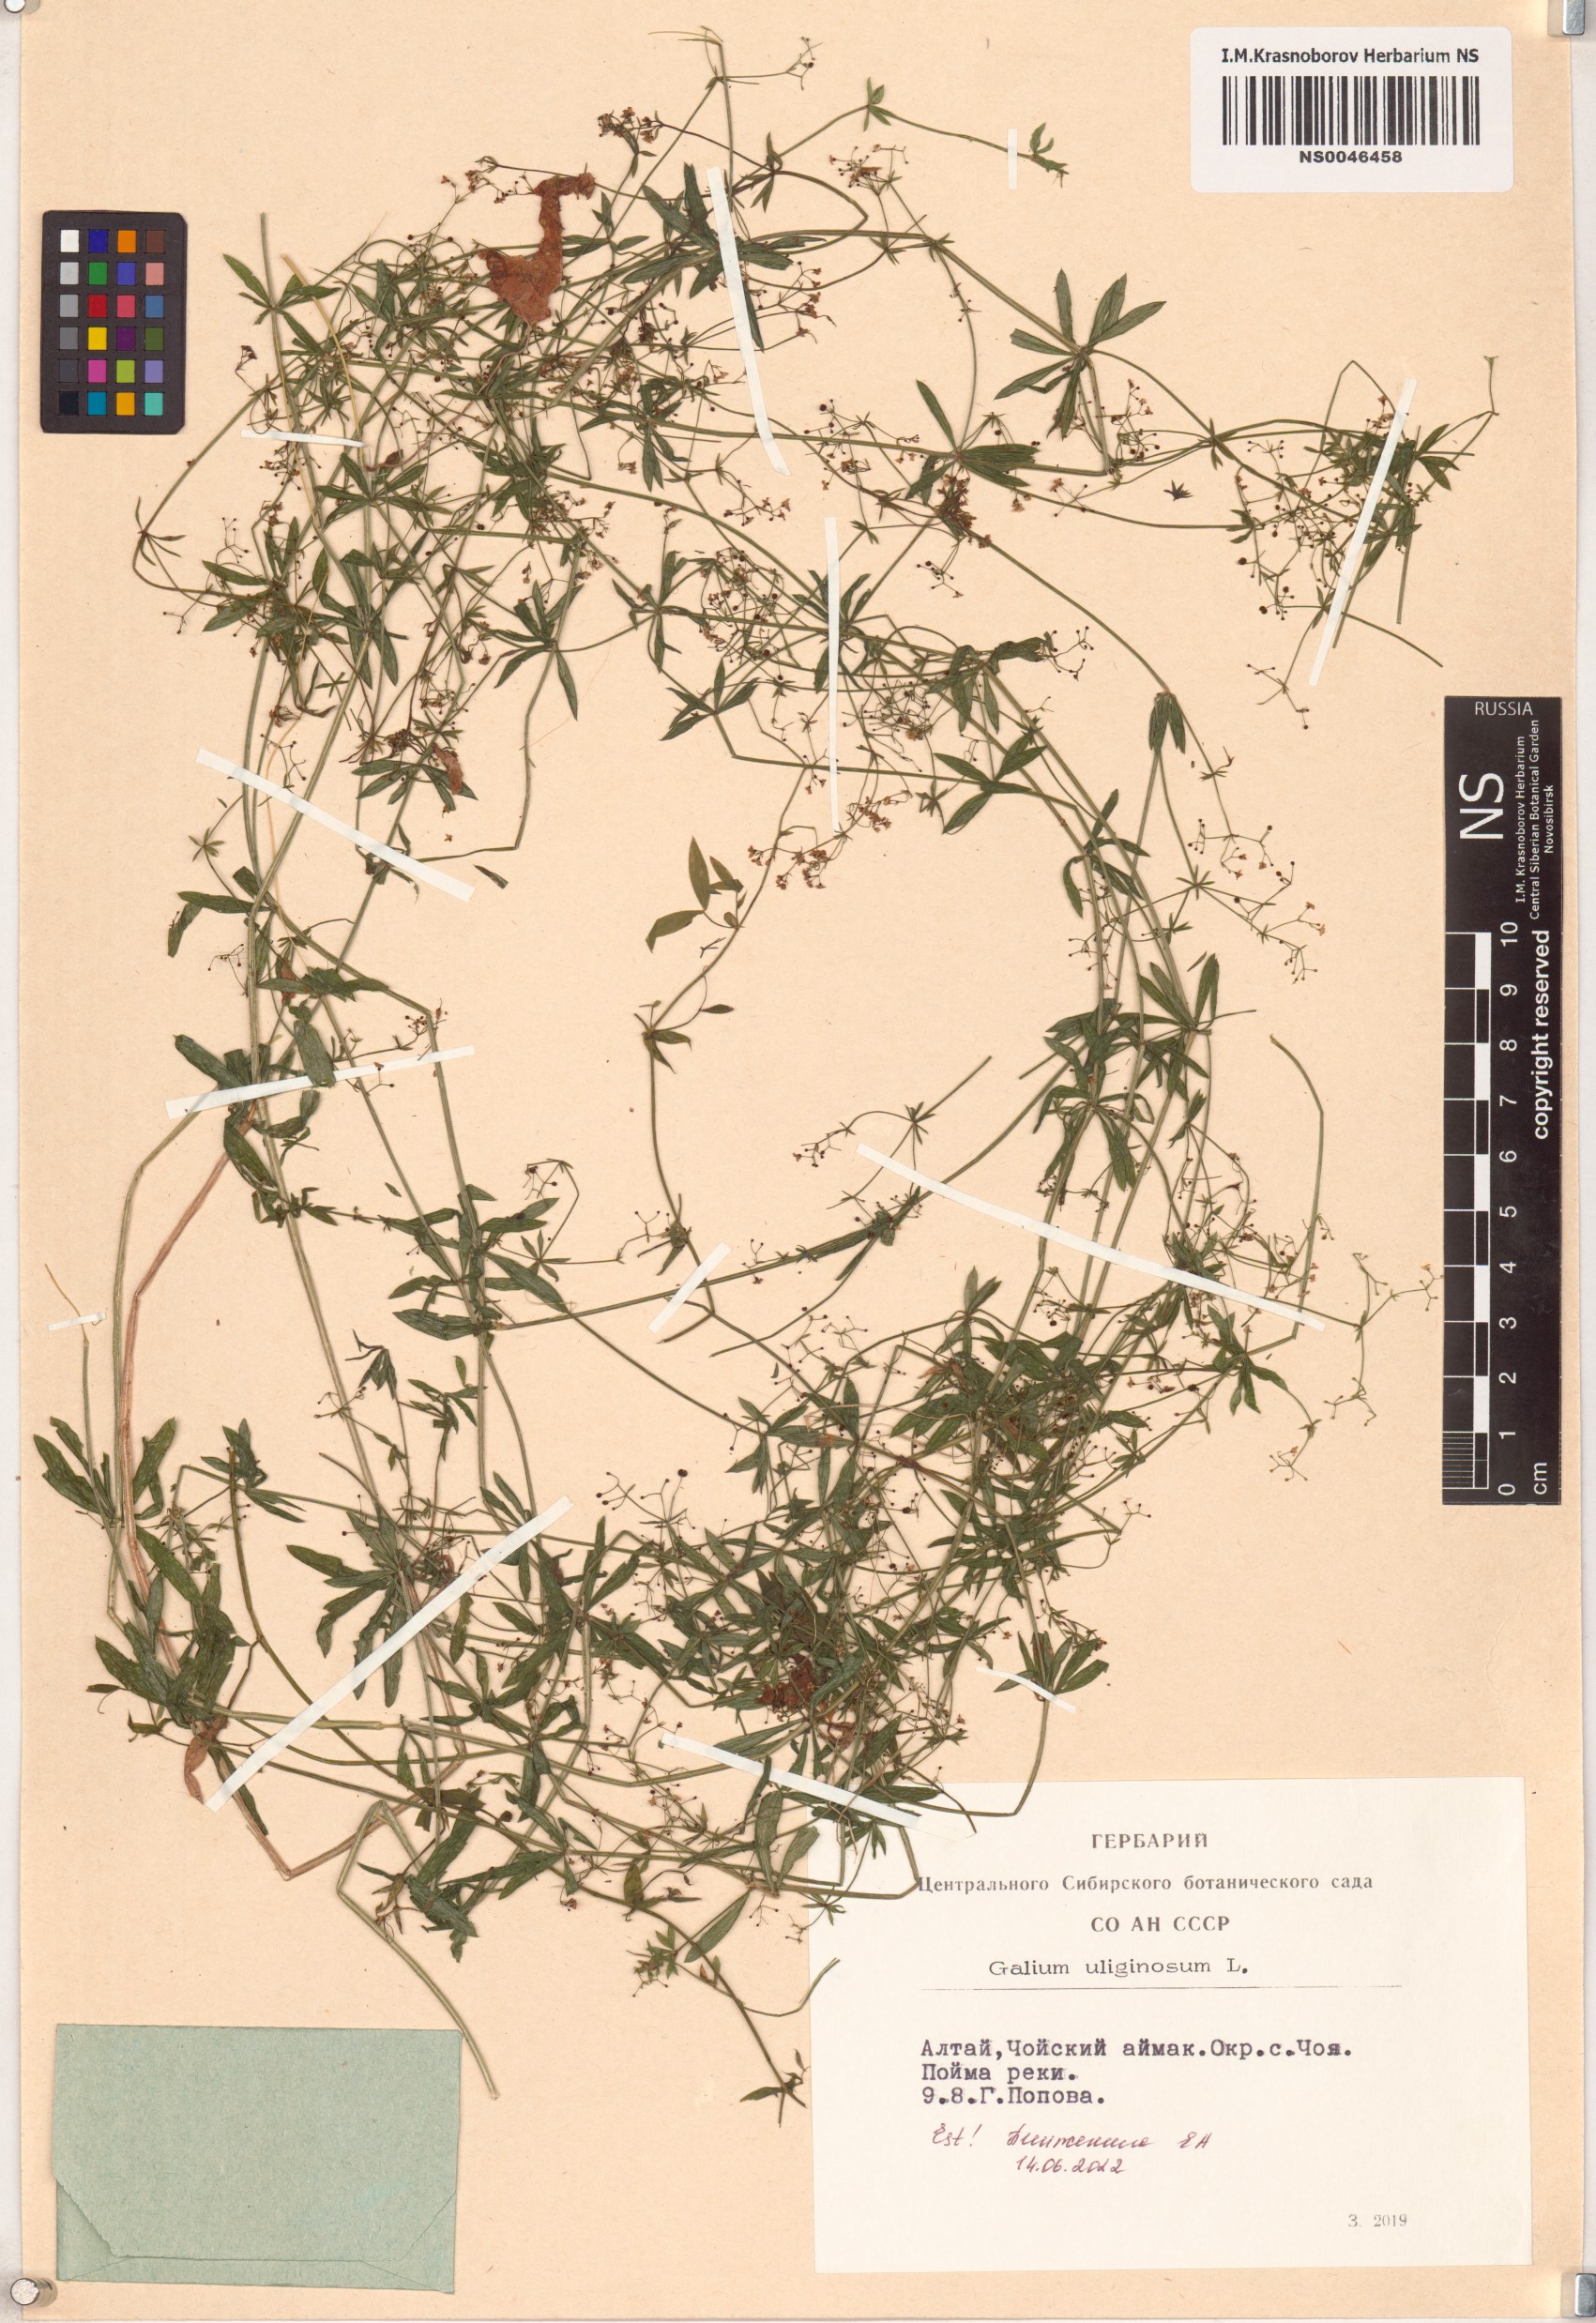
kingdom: Plantae
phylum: Tracheophyta
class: Magnoliopsida
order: Gentianales
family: Rubiaceae
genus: Galium
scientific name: Galium uliginosum
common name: Fen bedstraw
